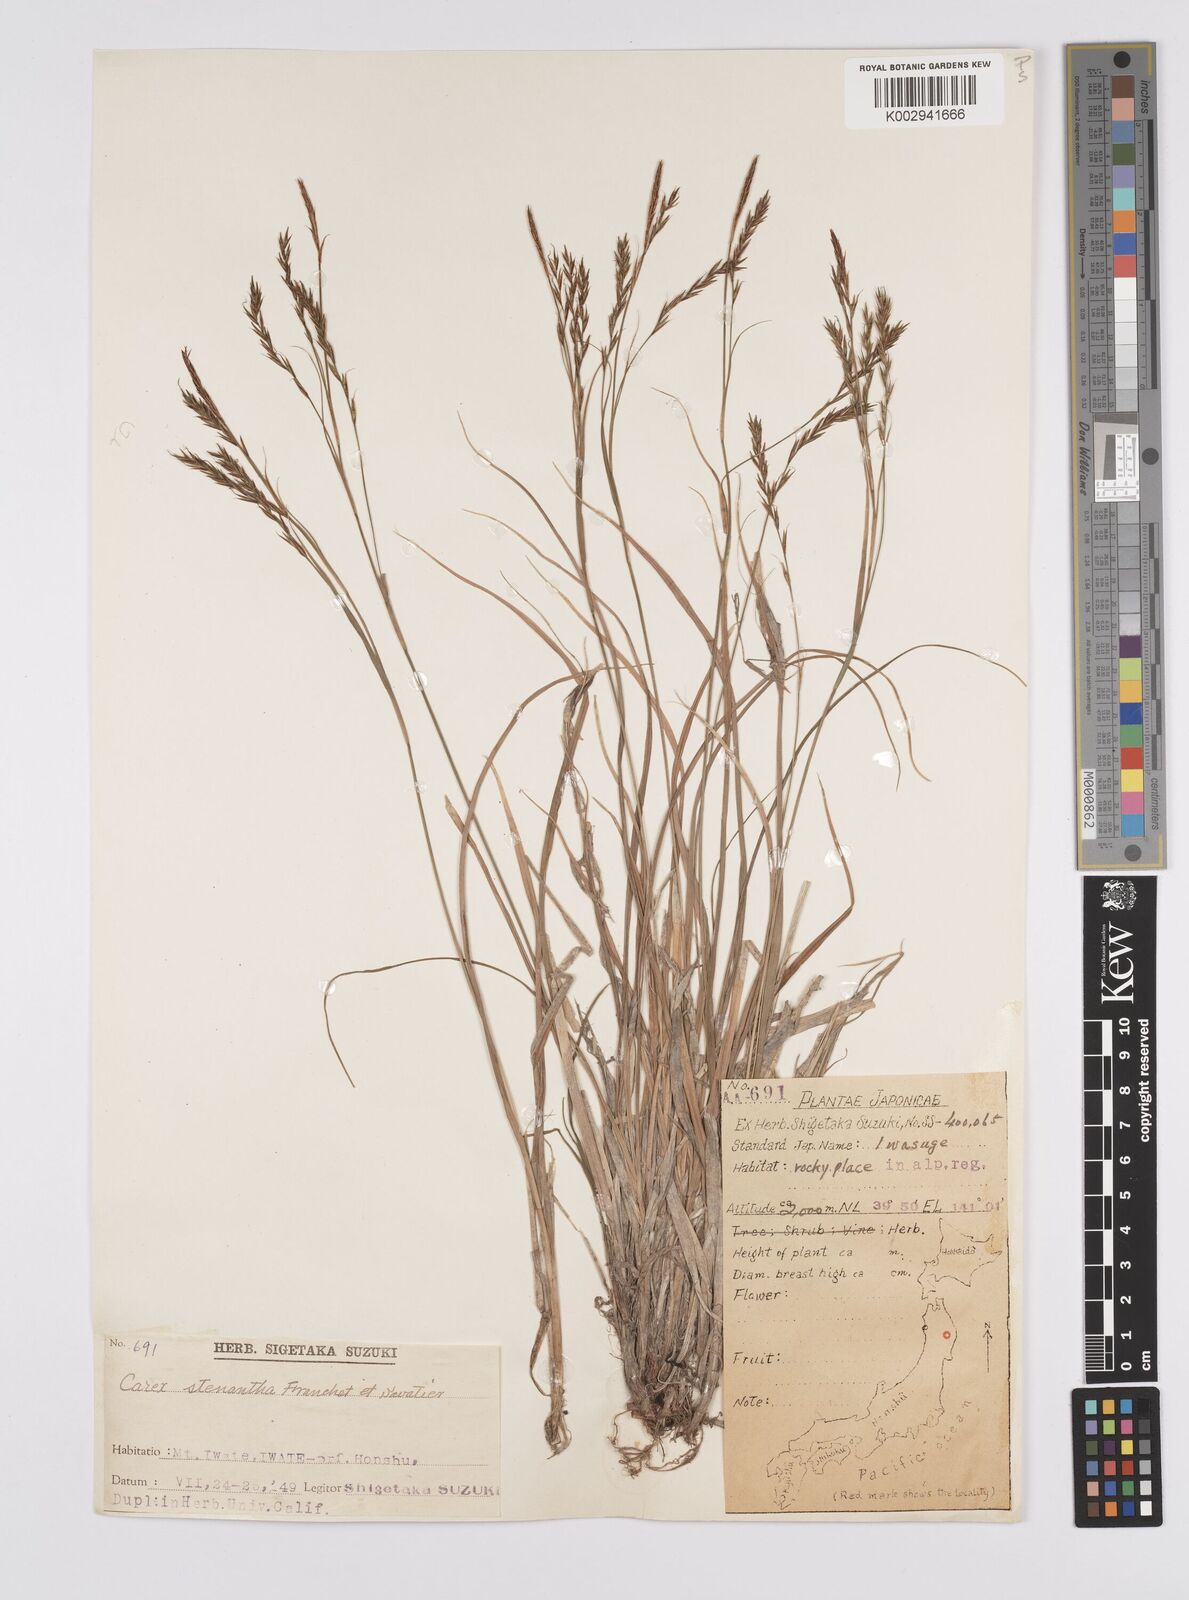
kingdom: Plantae
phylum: Tracheophyta
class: Liliopsida
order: Poales
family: Cyperaceae
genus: Carex
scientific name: Carex stenantha
